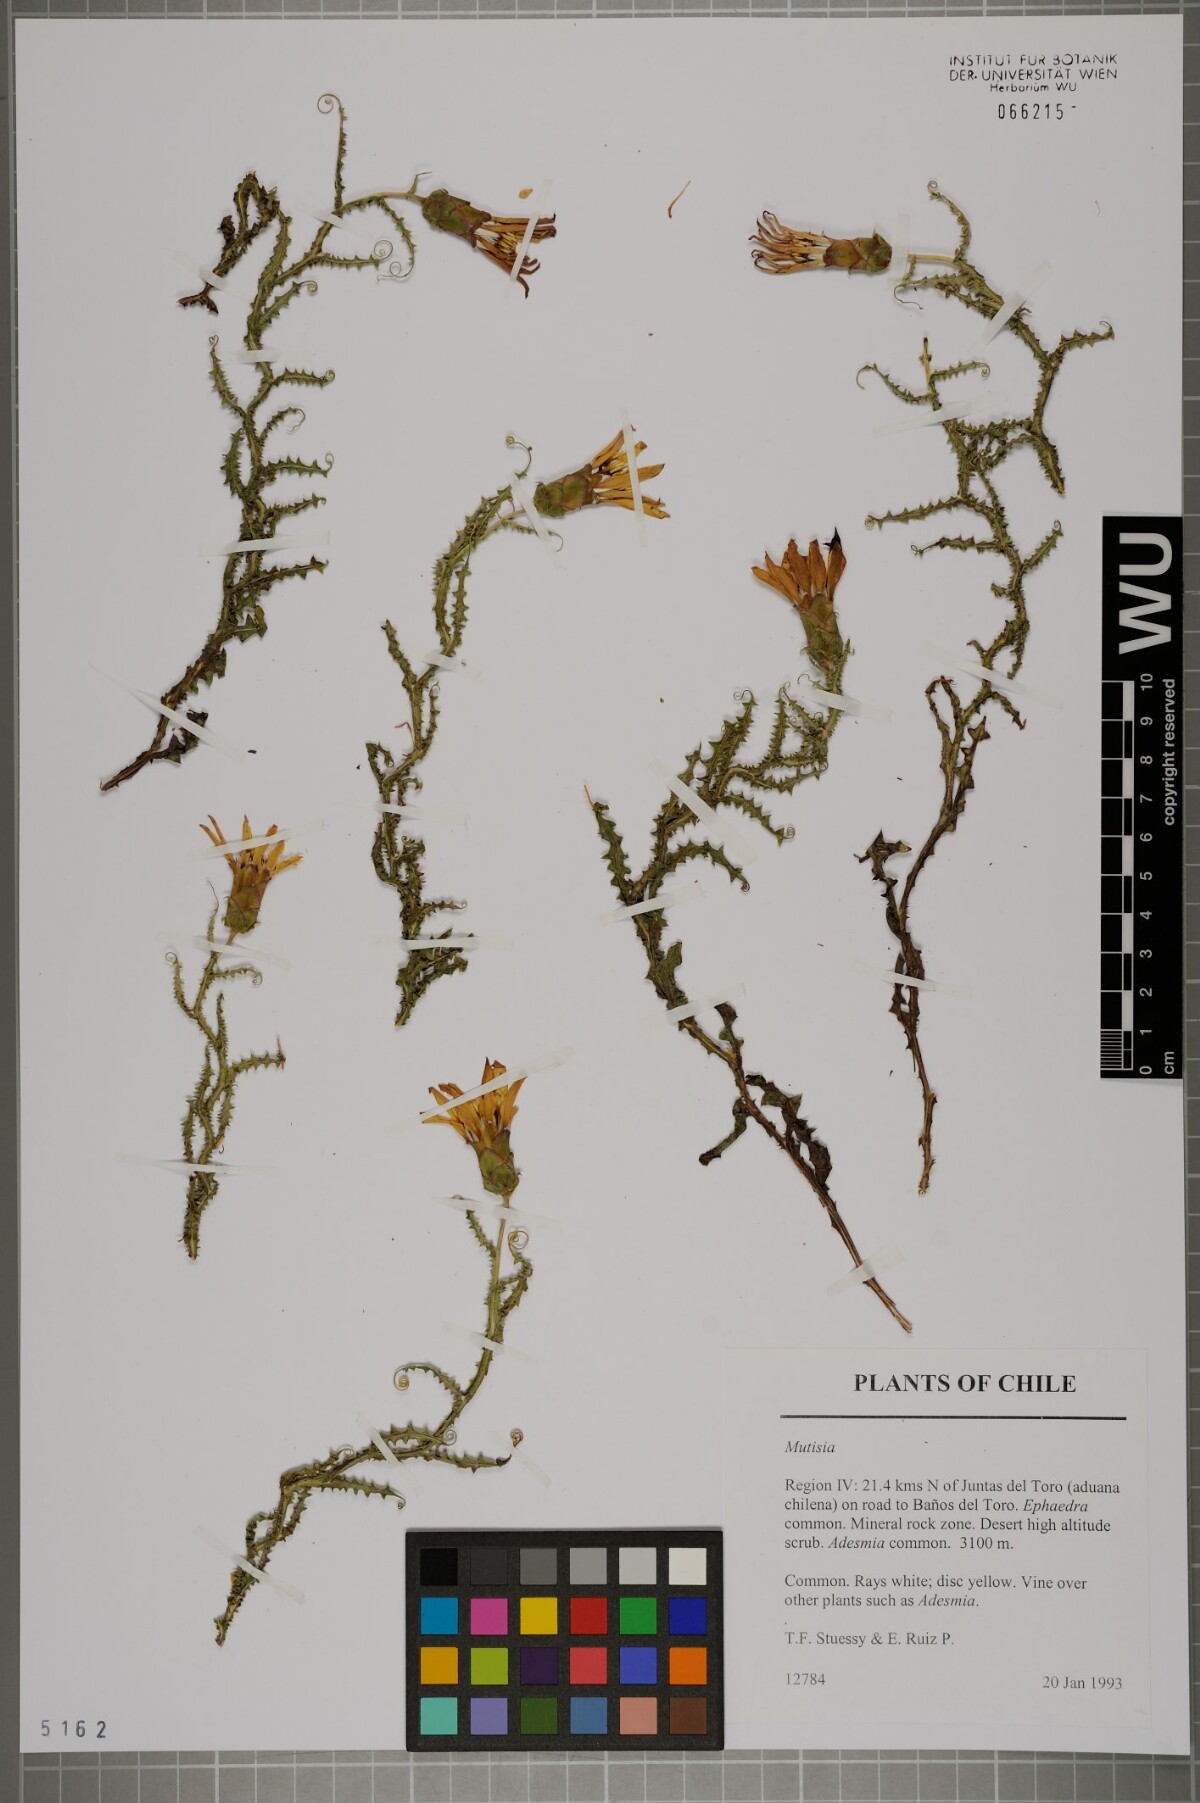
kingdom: Plantae
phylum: Tracheophyta
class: Magnoliopsida
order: Asterales
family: Asteraceae
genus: Mutisia
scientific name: Mutisia sinuata
